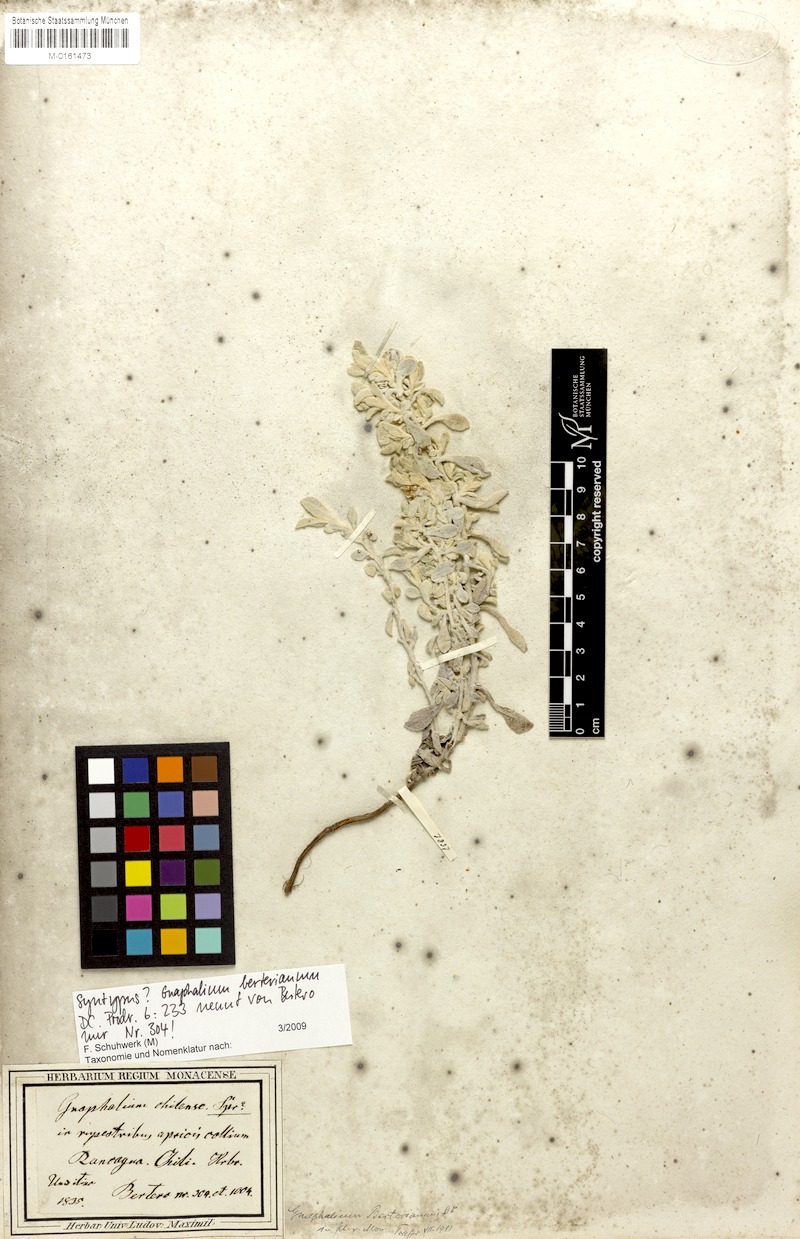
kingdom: Plantae
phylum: Tracheophyta
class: Magnoliopsida
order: Asterales
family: Asteraceae
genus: Gamochaeta
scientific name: Gamochaeta filaginea
